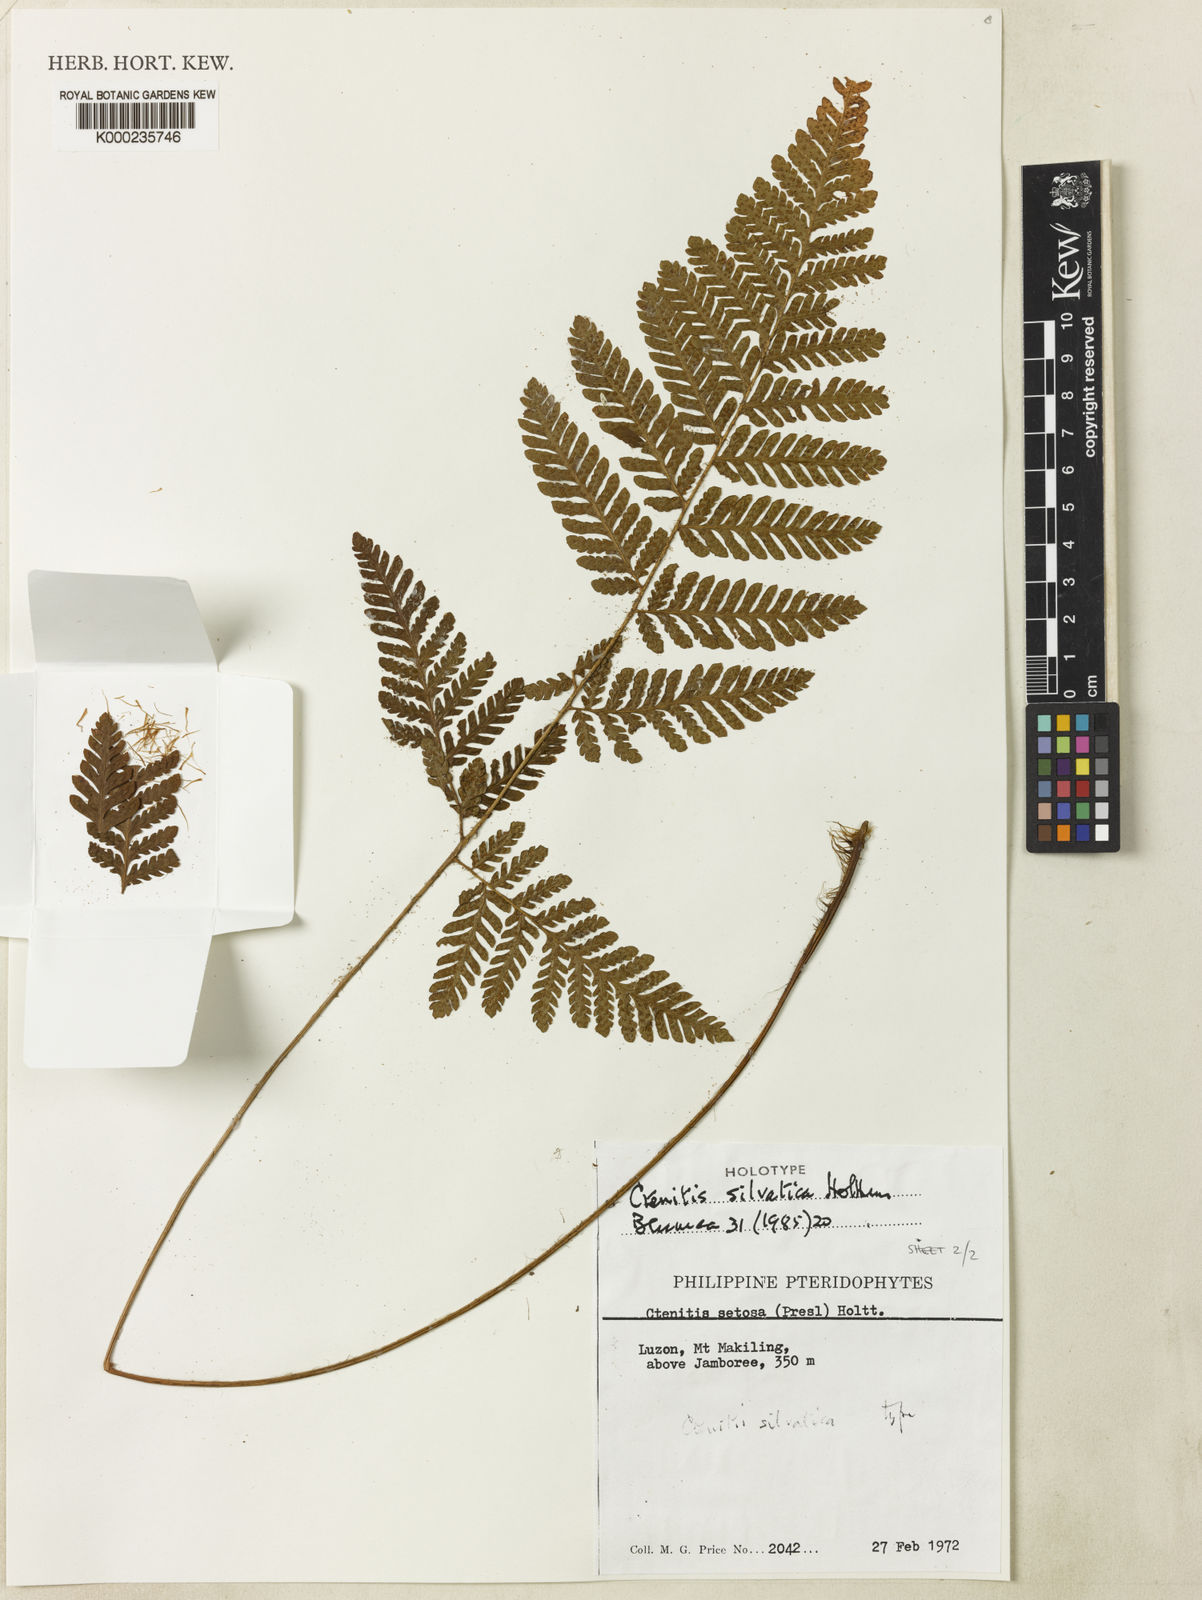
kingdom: Plantae
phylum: Tracheophyta
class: Polypodiopsida
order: Polypodiales
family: Dryopteridaceae
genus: Ctenitis
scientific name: Ctenitis silvatica
